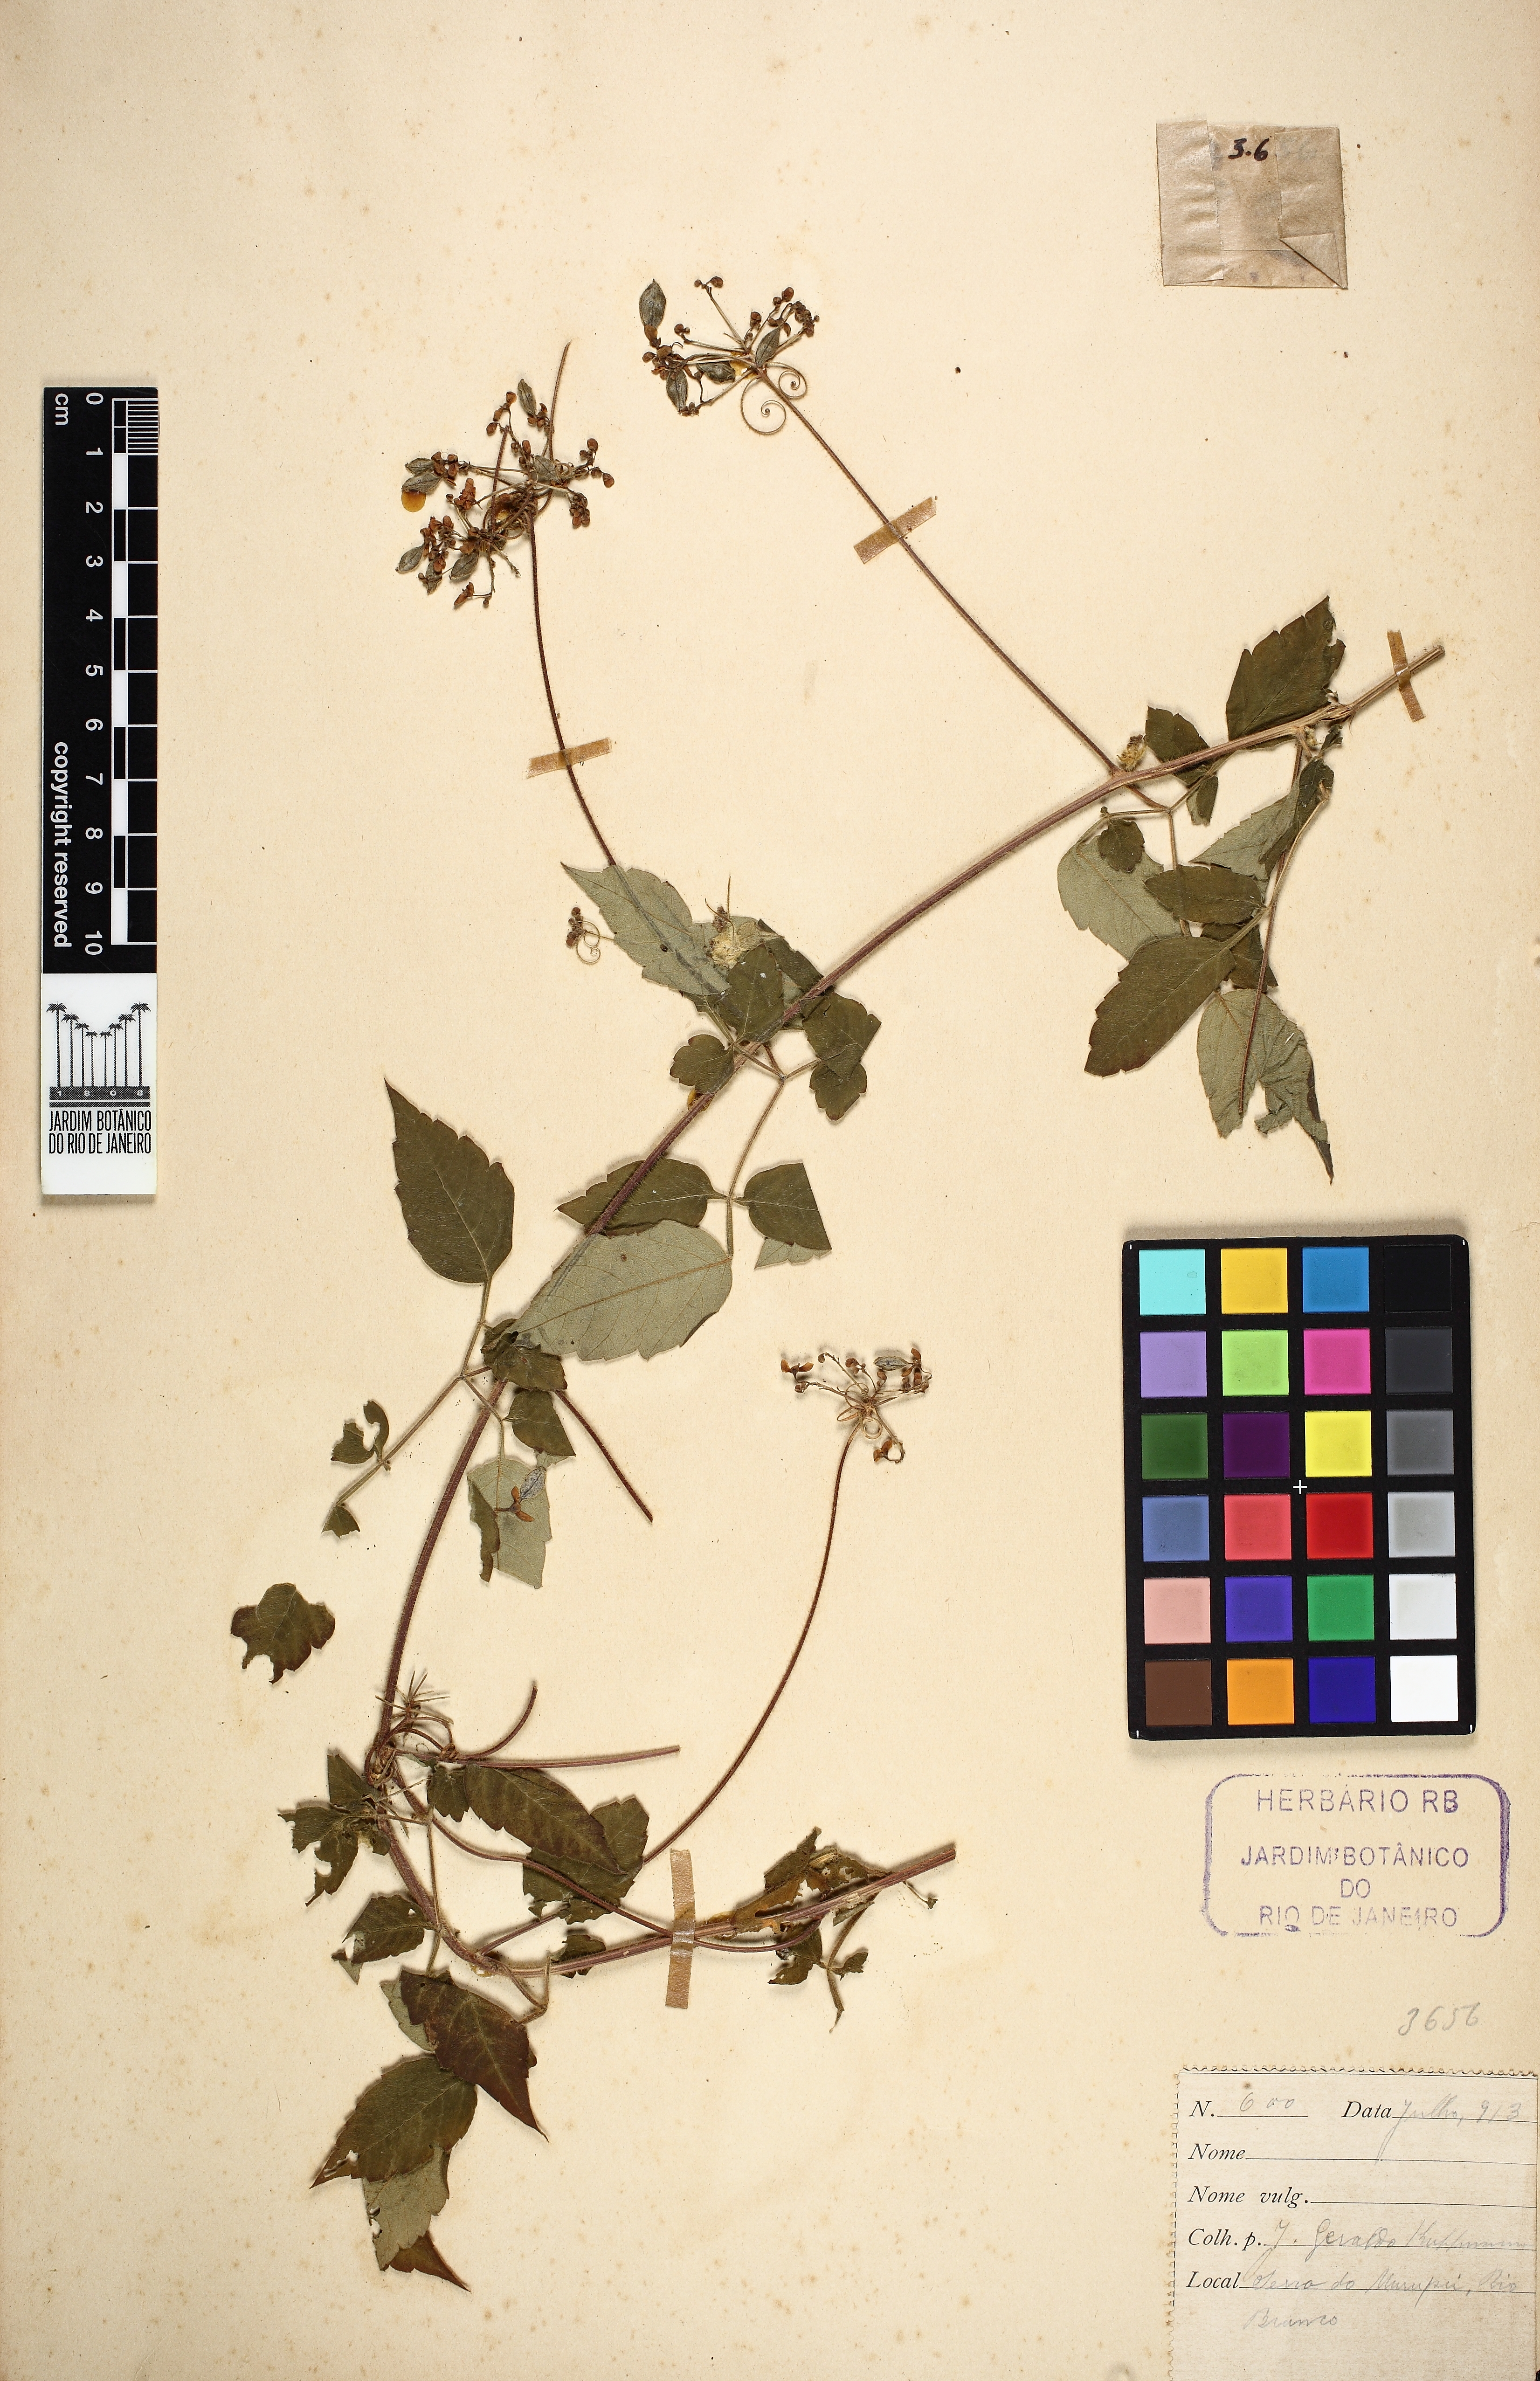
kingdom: Plantae
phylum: Tracheophyta
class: Magnoliopsida
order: Sapindales
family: Sapindaceae
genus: Cardiospermum
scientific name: Cardiospermum corindum
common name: Faux persil
